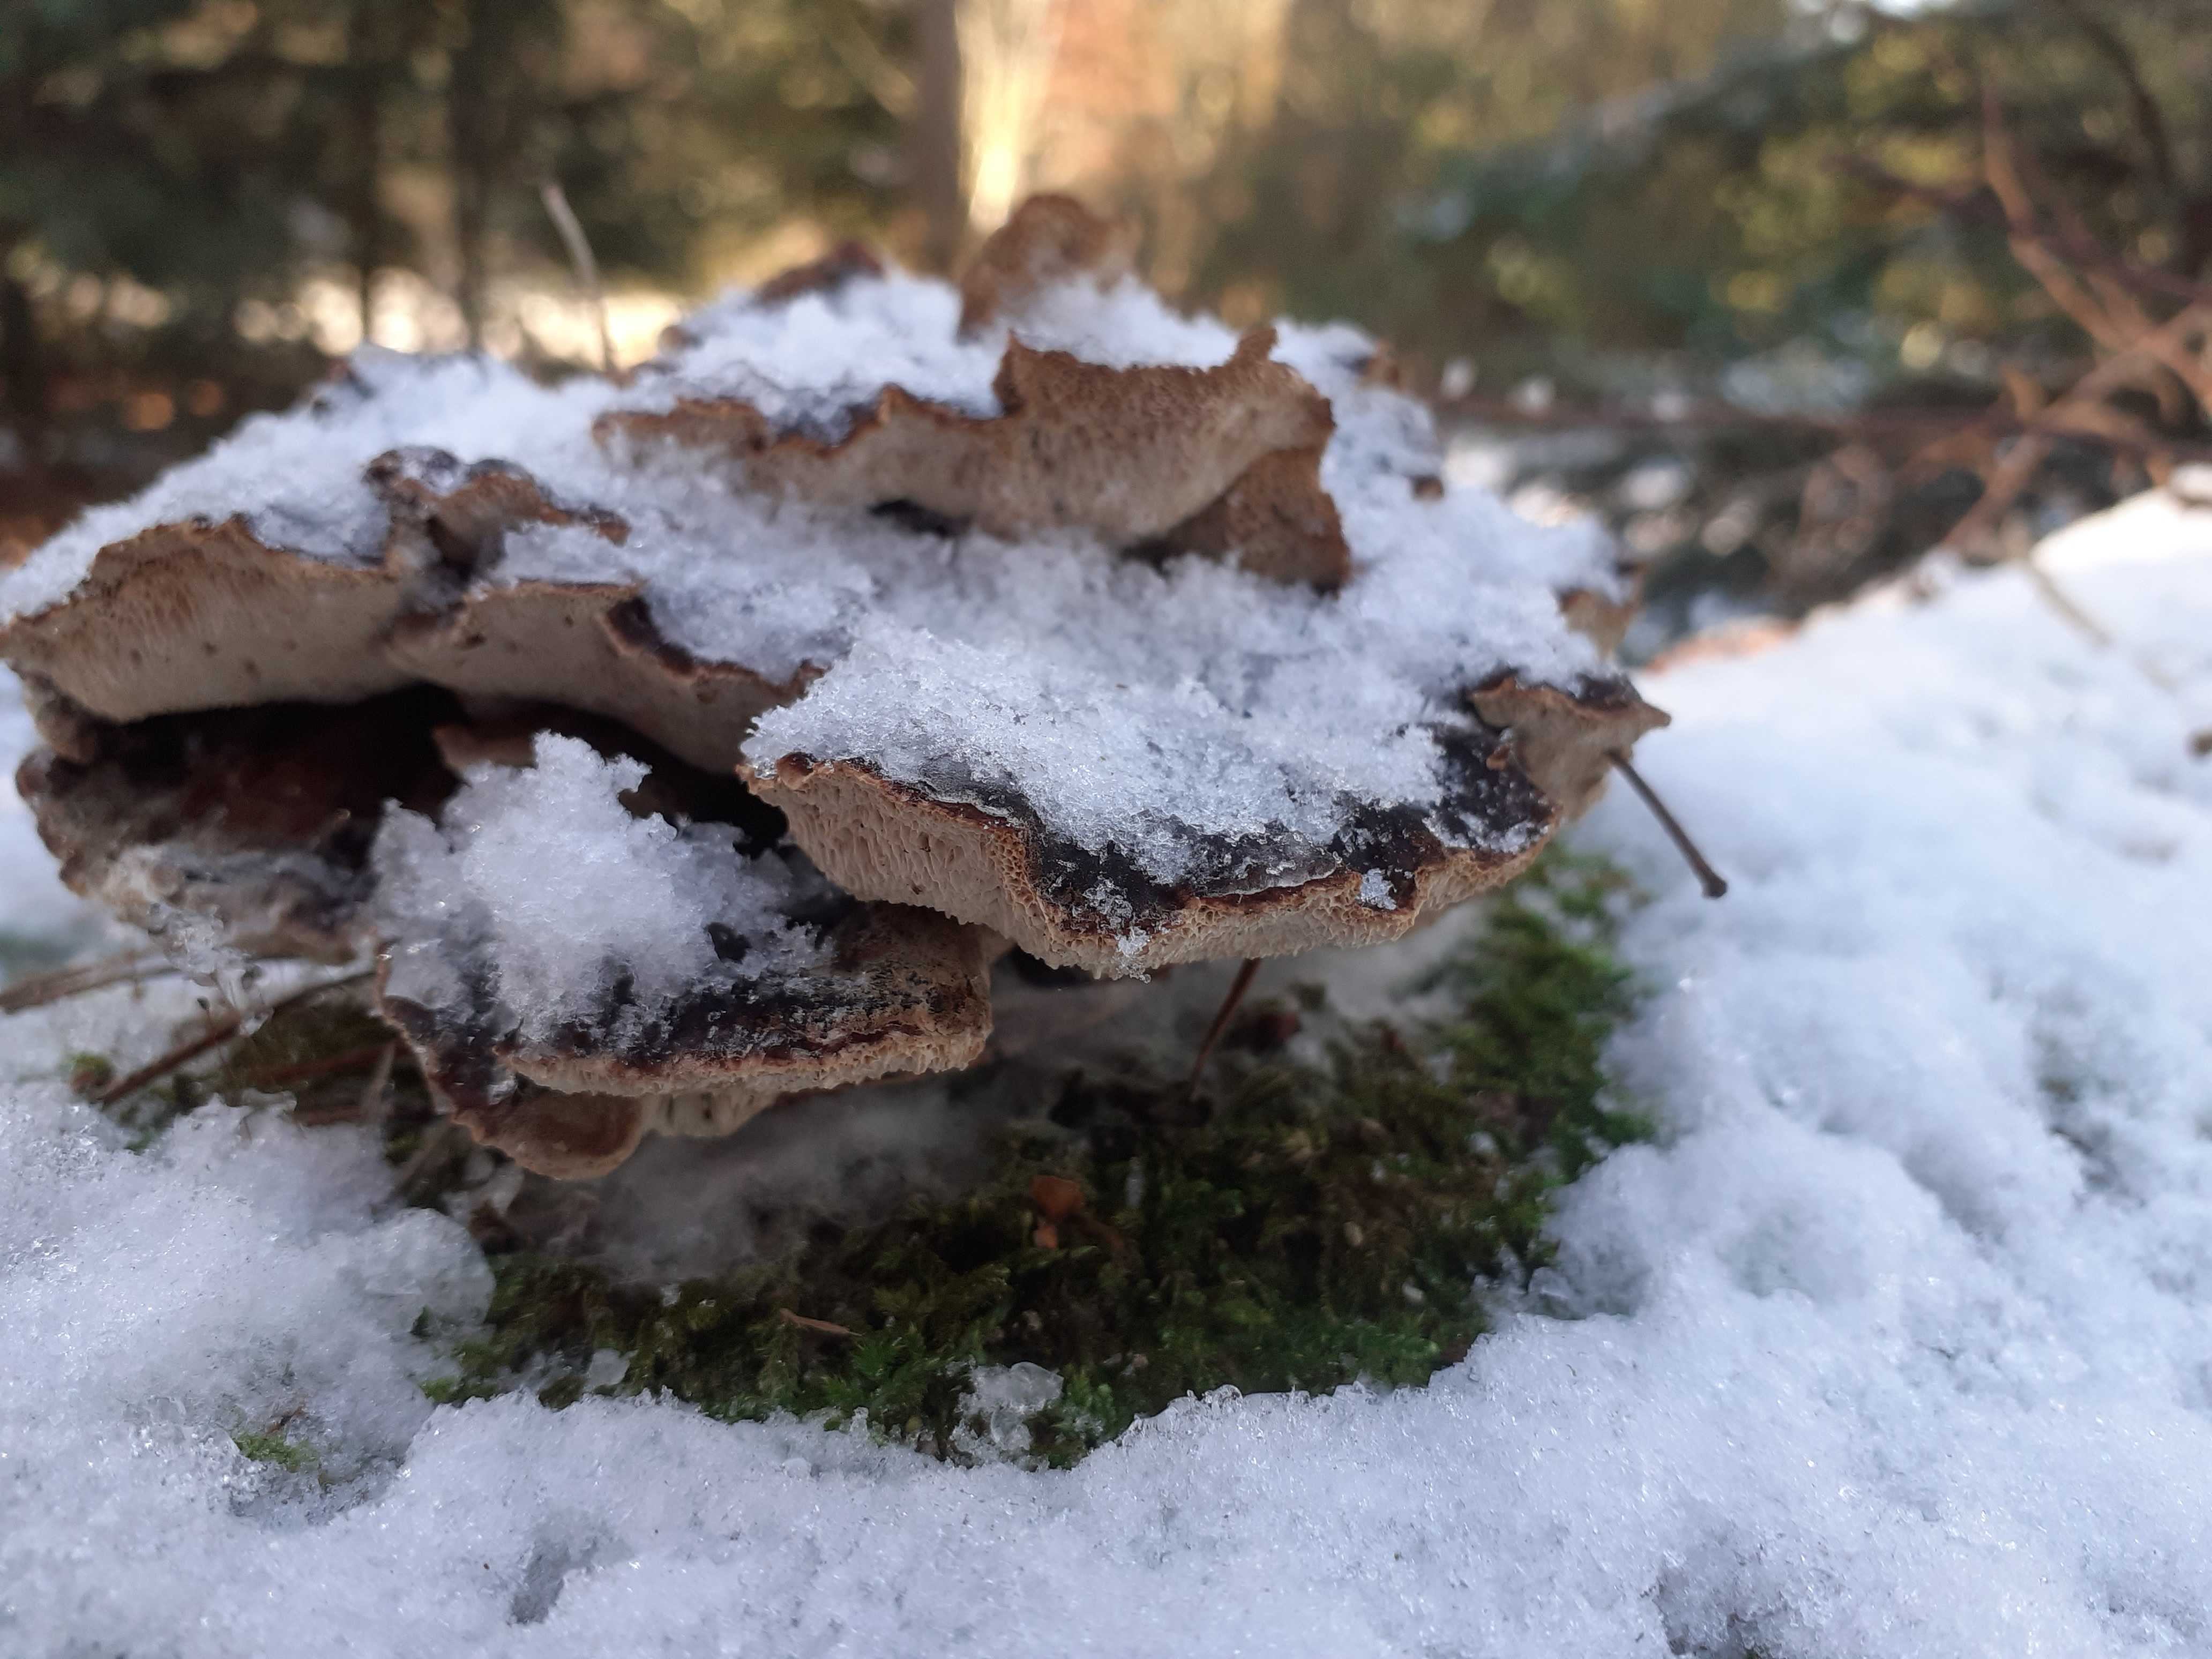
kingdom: Fungi
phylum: Basidiomycota
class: Agaricomycetes
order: Polyporales
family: Ischnodermataceae
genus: Ischnoderma
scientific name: Ischnoderma benzoinum
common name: gran-tjæreporesvamp
